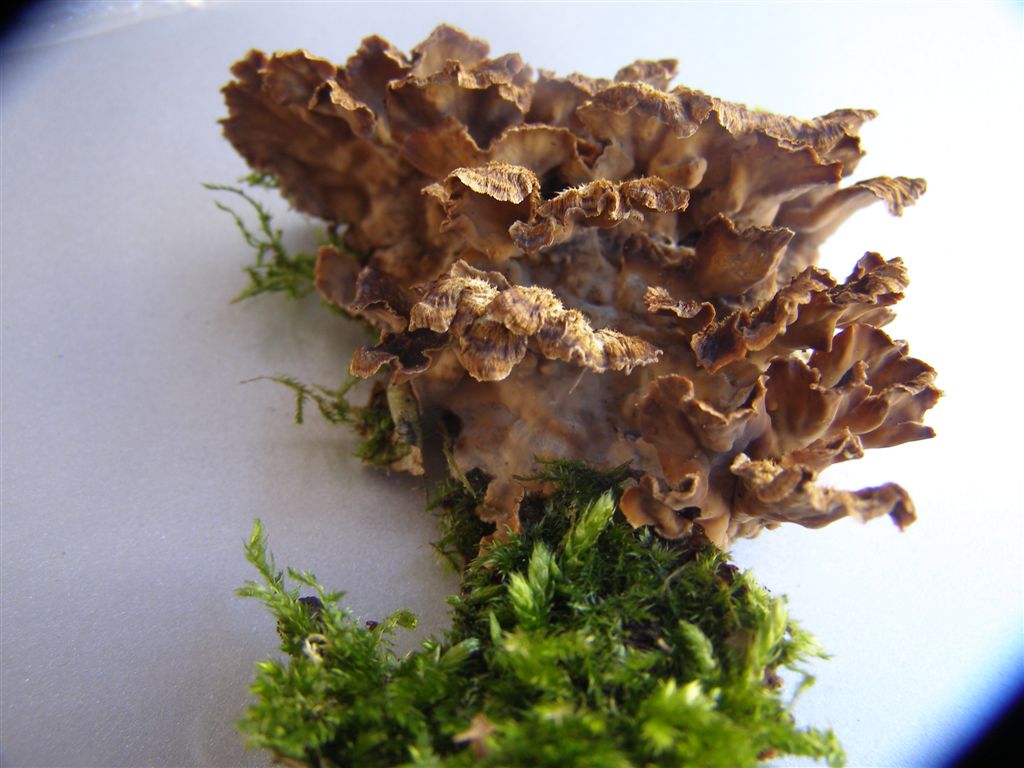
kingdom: Fungi
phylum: Basidiomycota
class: Agaricomycetes
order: Russulales
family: Stereaceae
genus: Stereum
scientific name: Stereum gausapatum
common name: tynd lædersvamp
